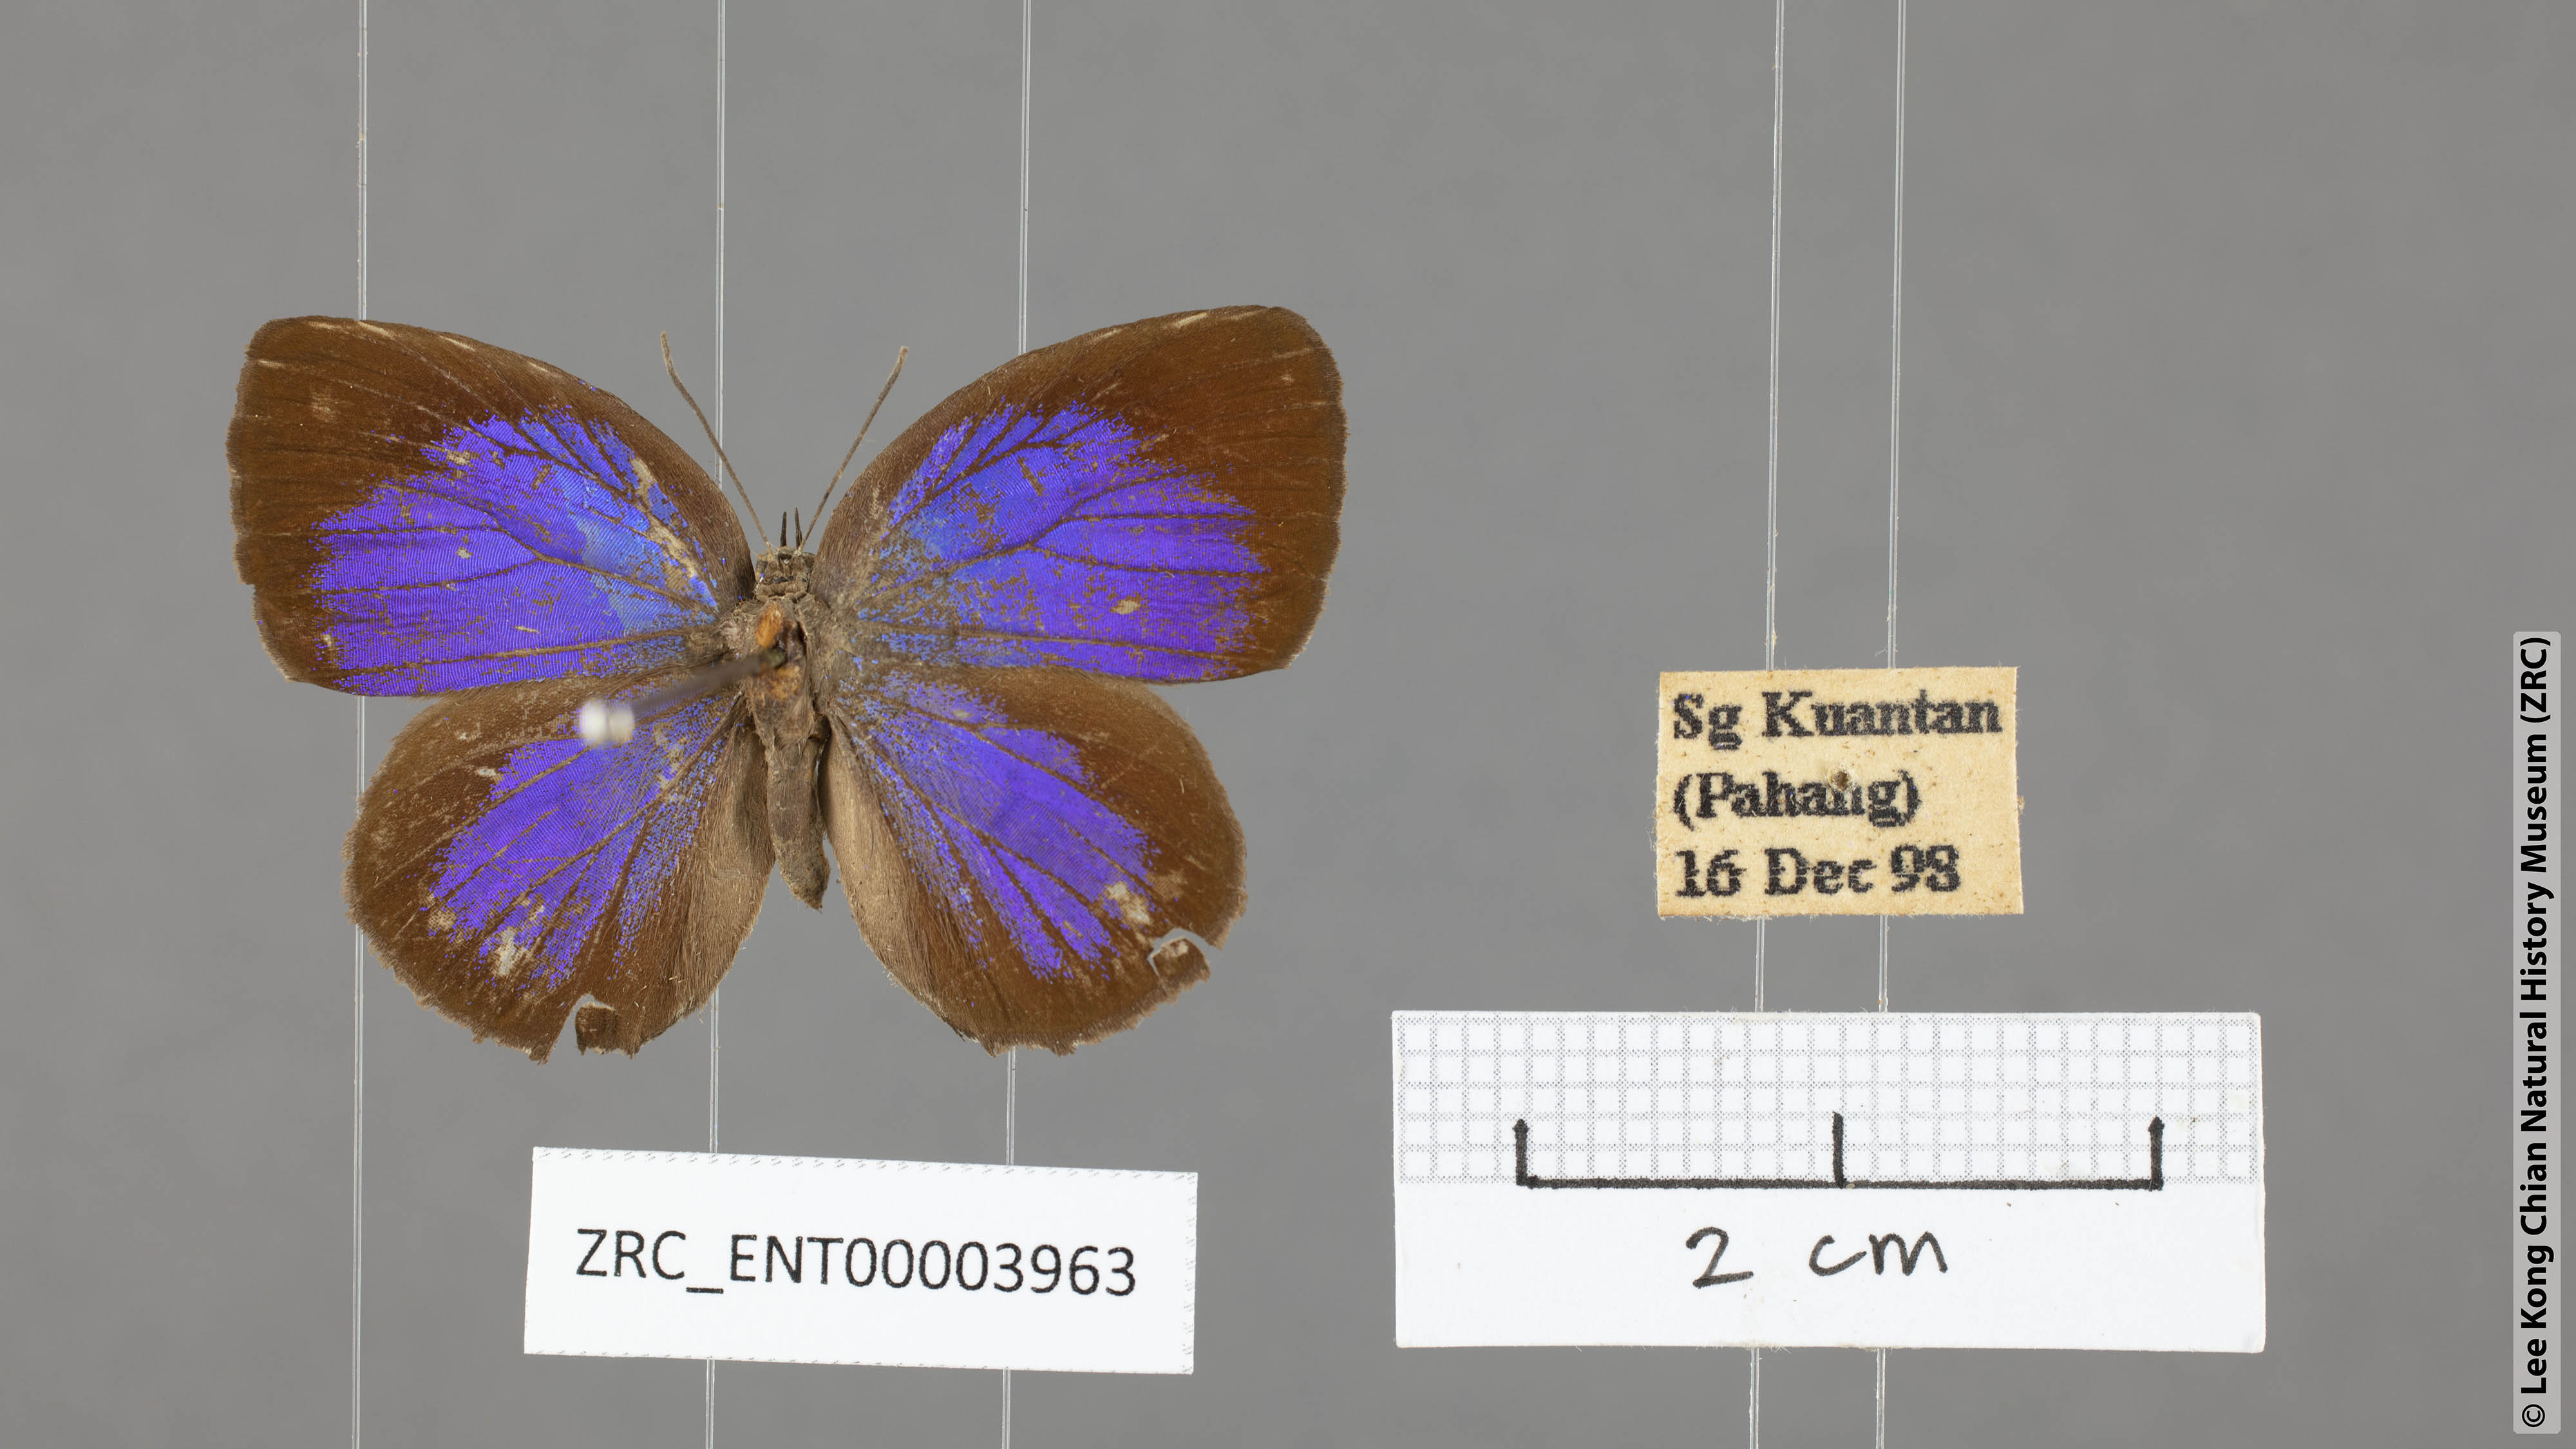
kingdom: Animalia
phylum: Arthropoda
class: Insecta
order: Lepidoptera
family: Lycaenidae
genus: Arhopala
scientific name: Arhopala hypomuta
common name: Violet oakblue
